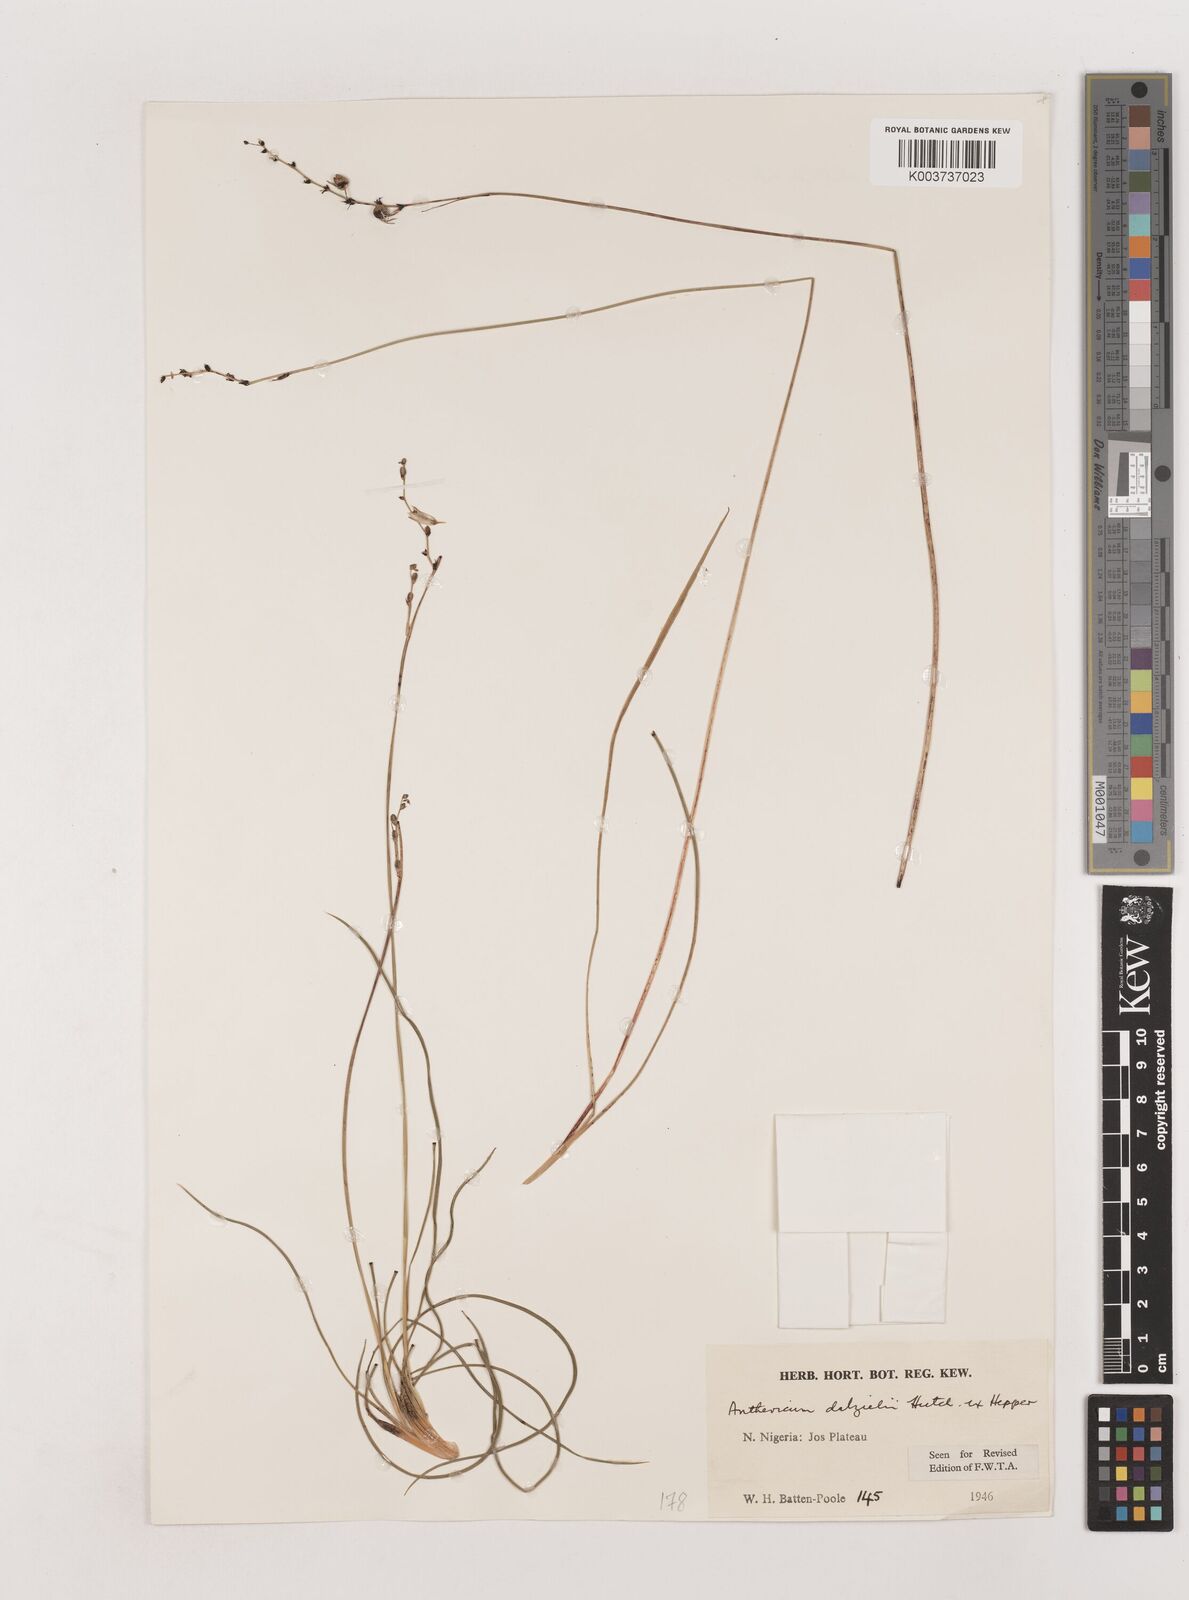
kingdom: Plantae
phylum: Tracheophyta
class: Liliopsida
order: Asparagales
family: Asparagaceae
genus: Chlorophytum
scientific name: Chlorophytum dalzielii
